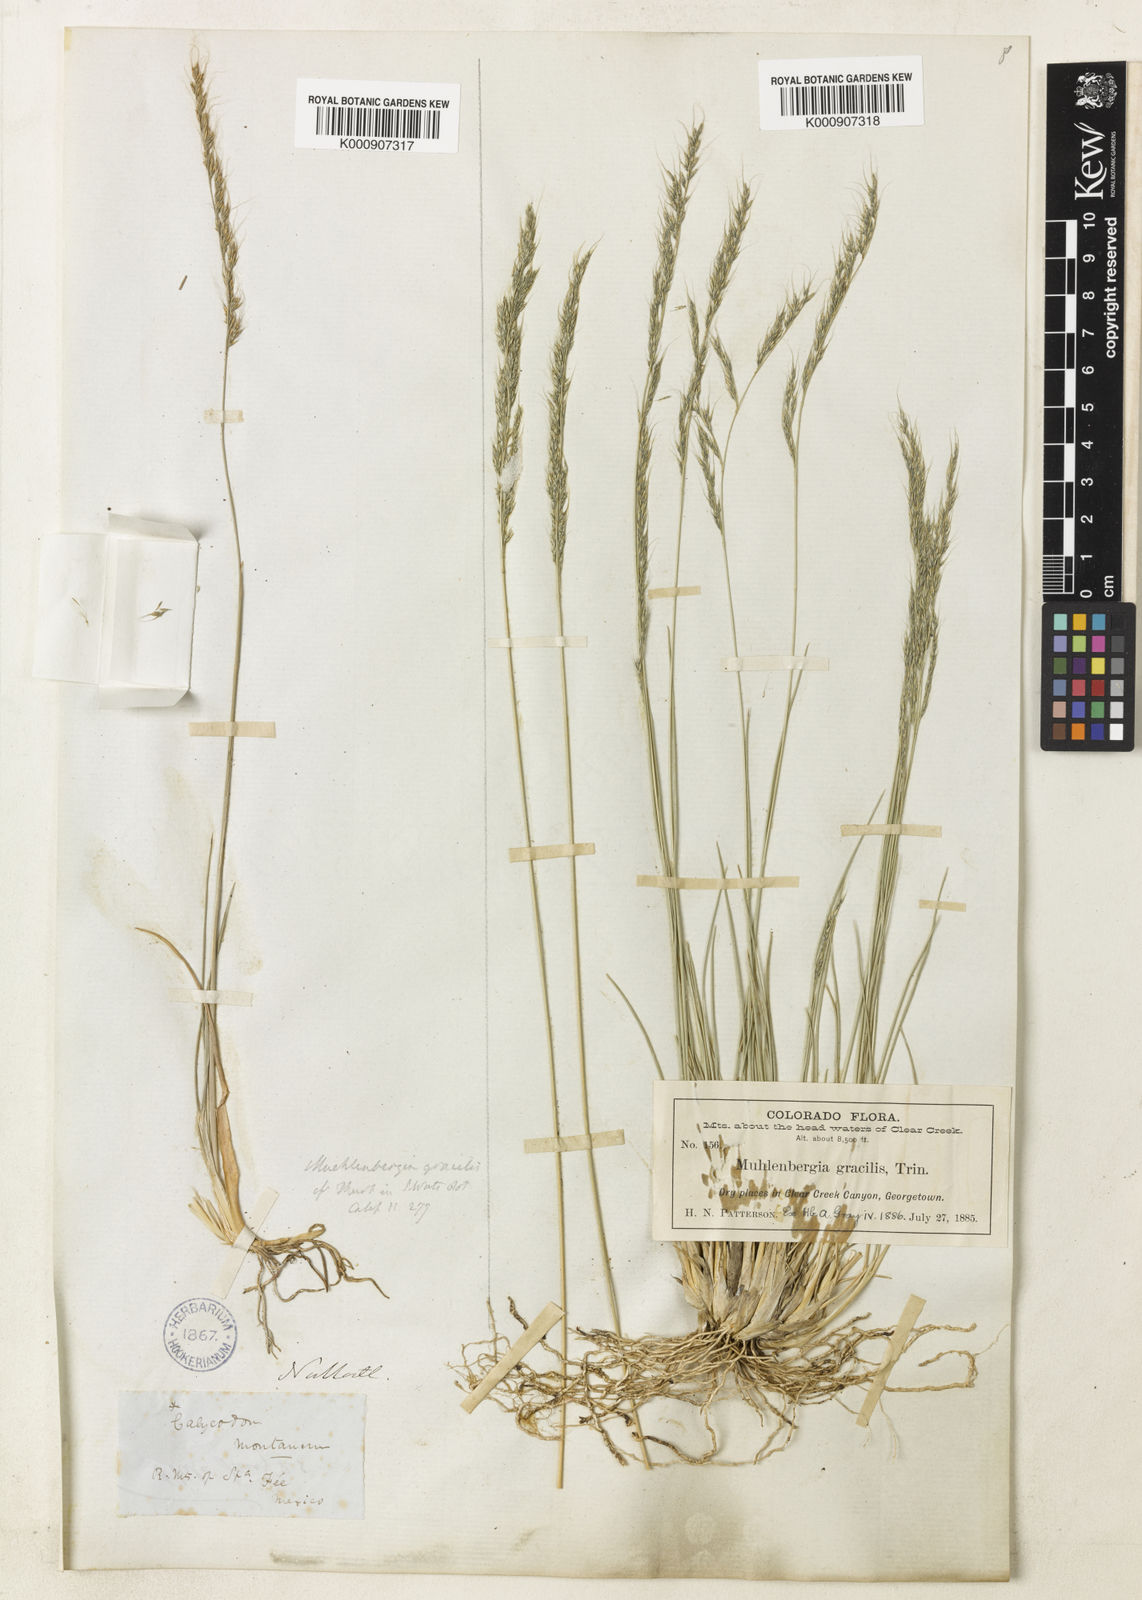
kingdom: Plantae
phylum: Tracheophyta
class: Liliopsida
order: Poales
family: Poaceae
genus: Muhlenbergia
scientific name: Muhlenbergia montana
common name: Mountain muhly
